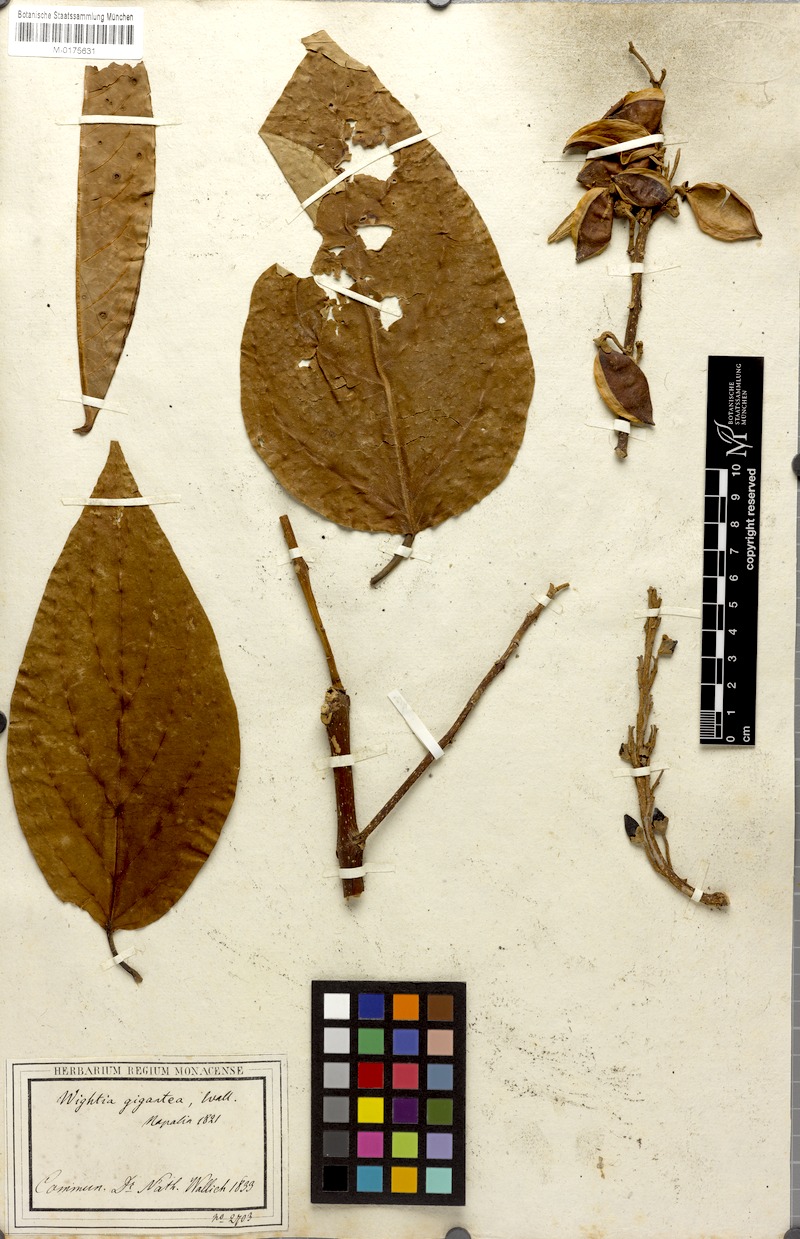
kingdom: Plantae
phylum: Tracheophyta
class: Magnoliopsida
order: Lamiales
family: Wightiaceae
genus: Wightia
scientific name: Wightia speciosissima
